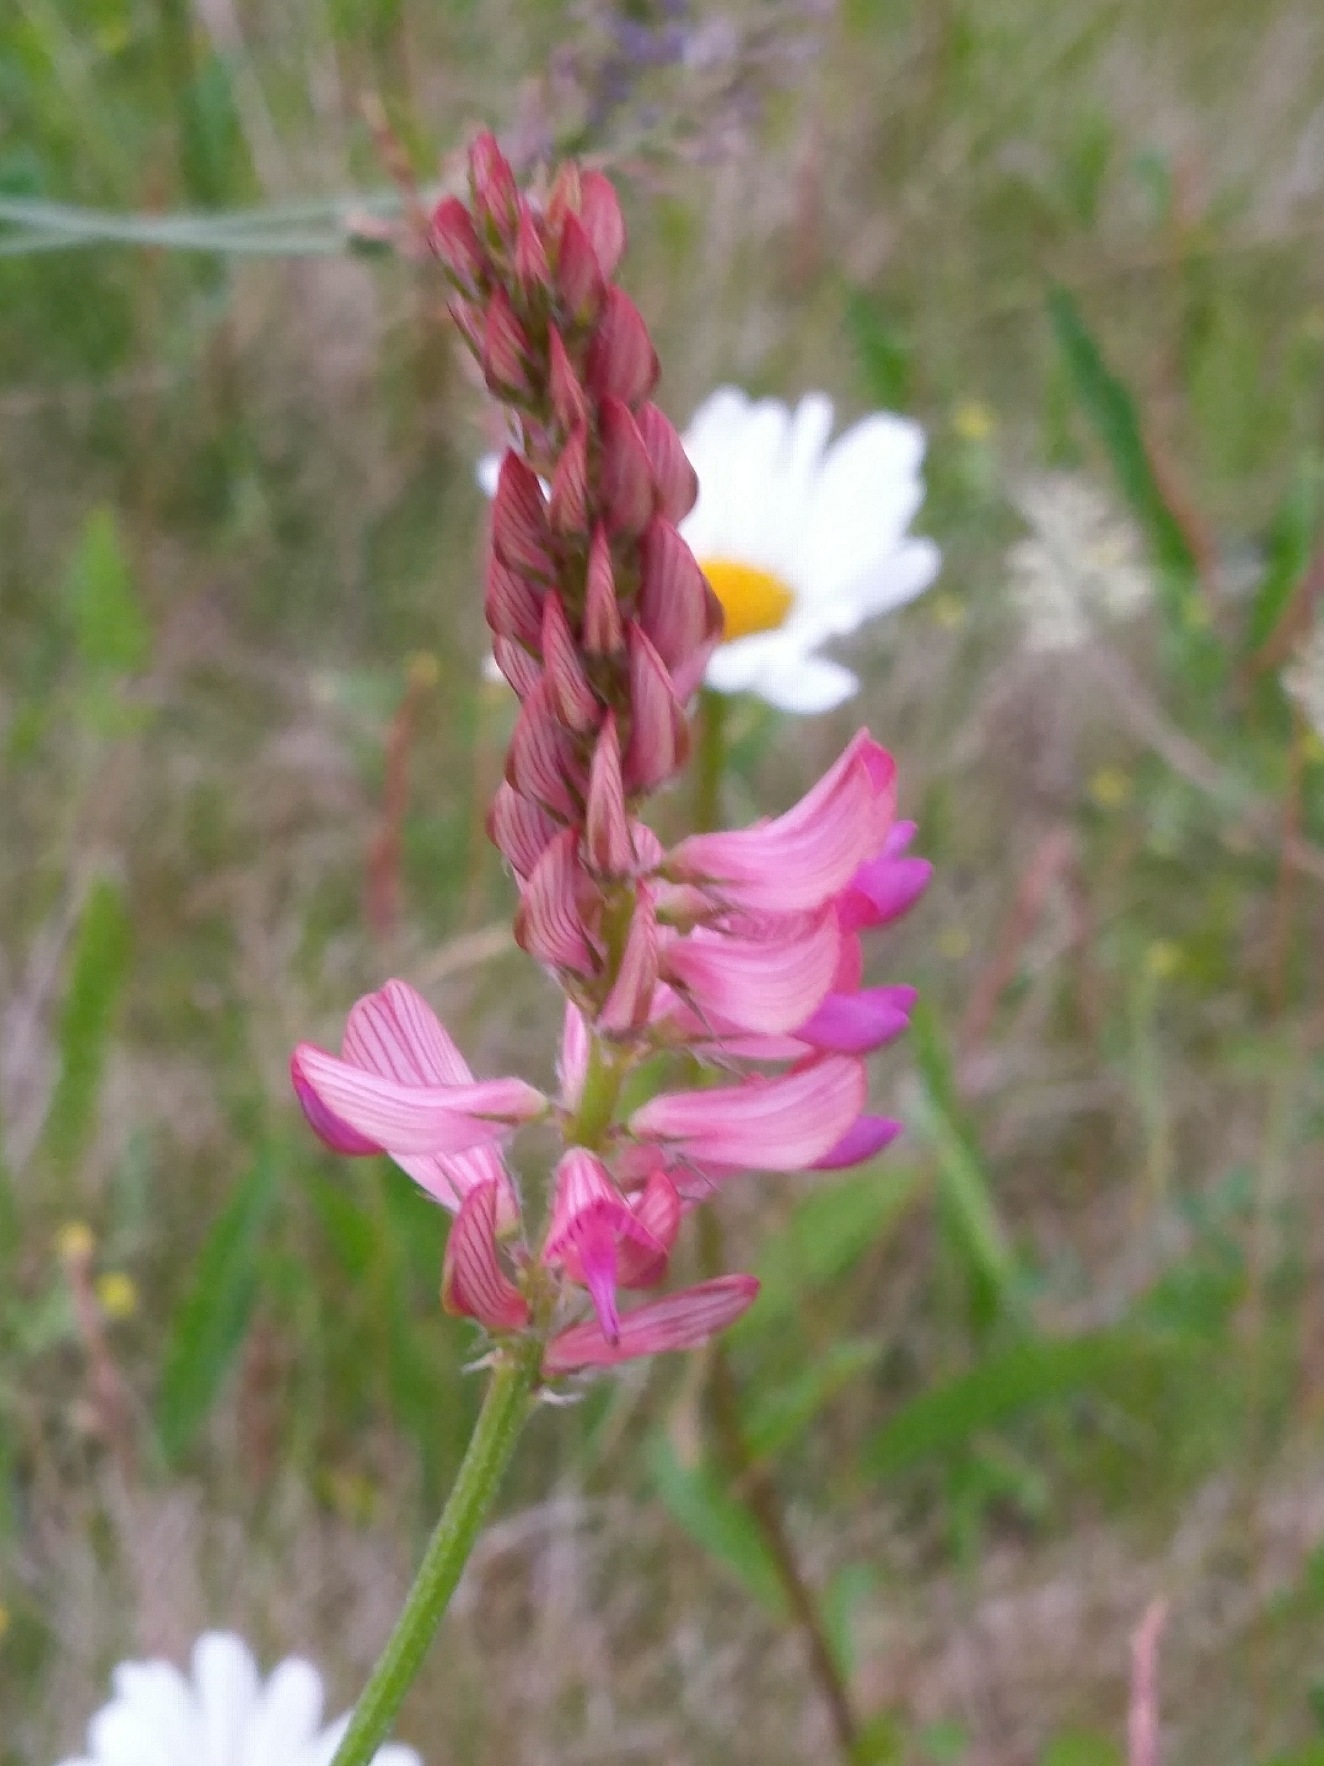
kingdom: Plantae
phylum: Tracheophyta
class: Magnoliopsida
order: Fabales
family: Fabaceae
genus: Onobrychis
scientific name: Onobrychis viciifolia
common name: Esparsette
